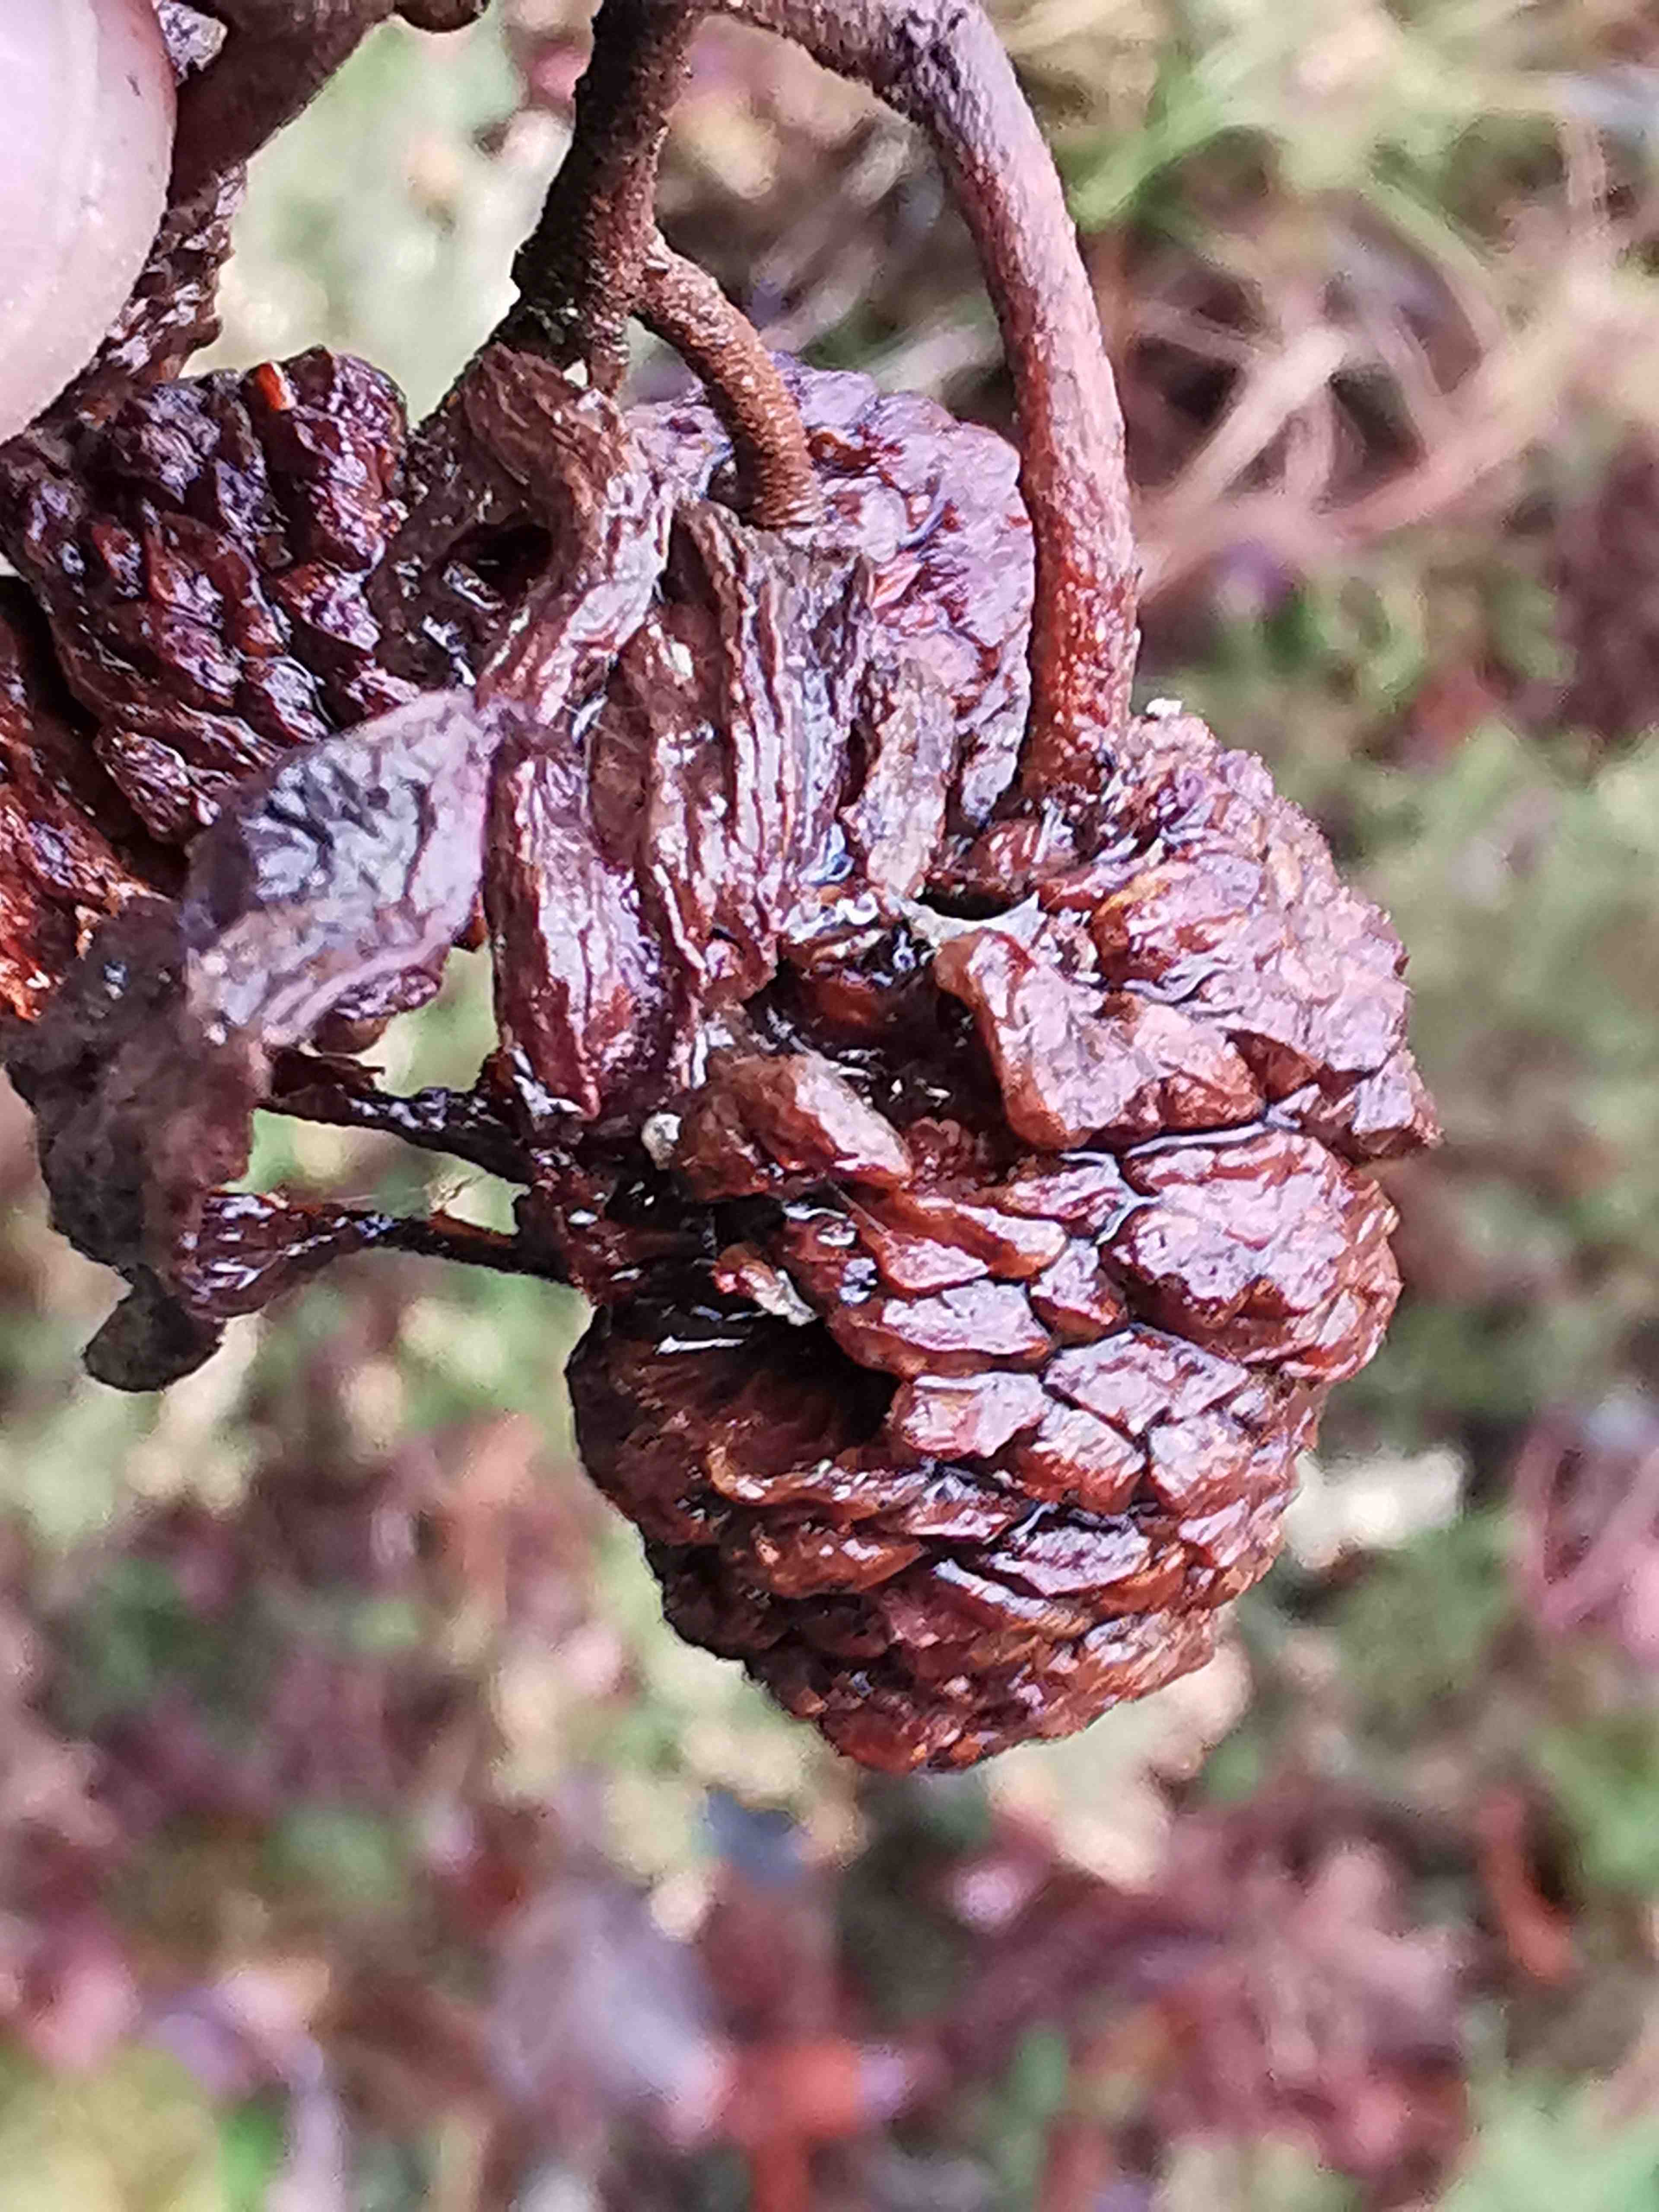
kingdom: Fungi
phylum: Ascomycota
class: Taphrinomycetes
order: Taphrinales
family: Taphrinaceae
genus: Taphrina
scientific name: Taphrina alni
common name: Alder tongue
